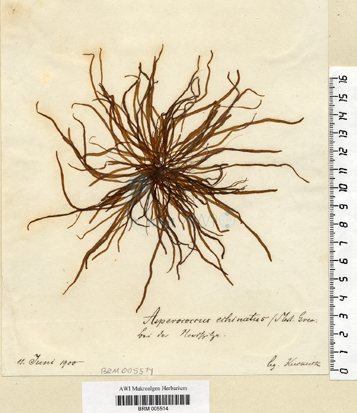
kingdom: Chromista
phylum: Ochrophyta
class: Phaeophyceae
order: Ectocarpales
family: Chordariaceae
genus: Asperococcus
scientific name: Asperococcus fistulosus
